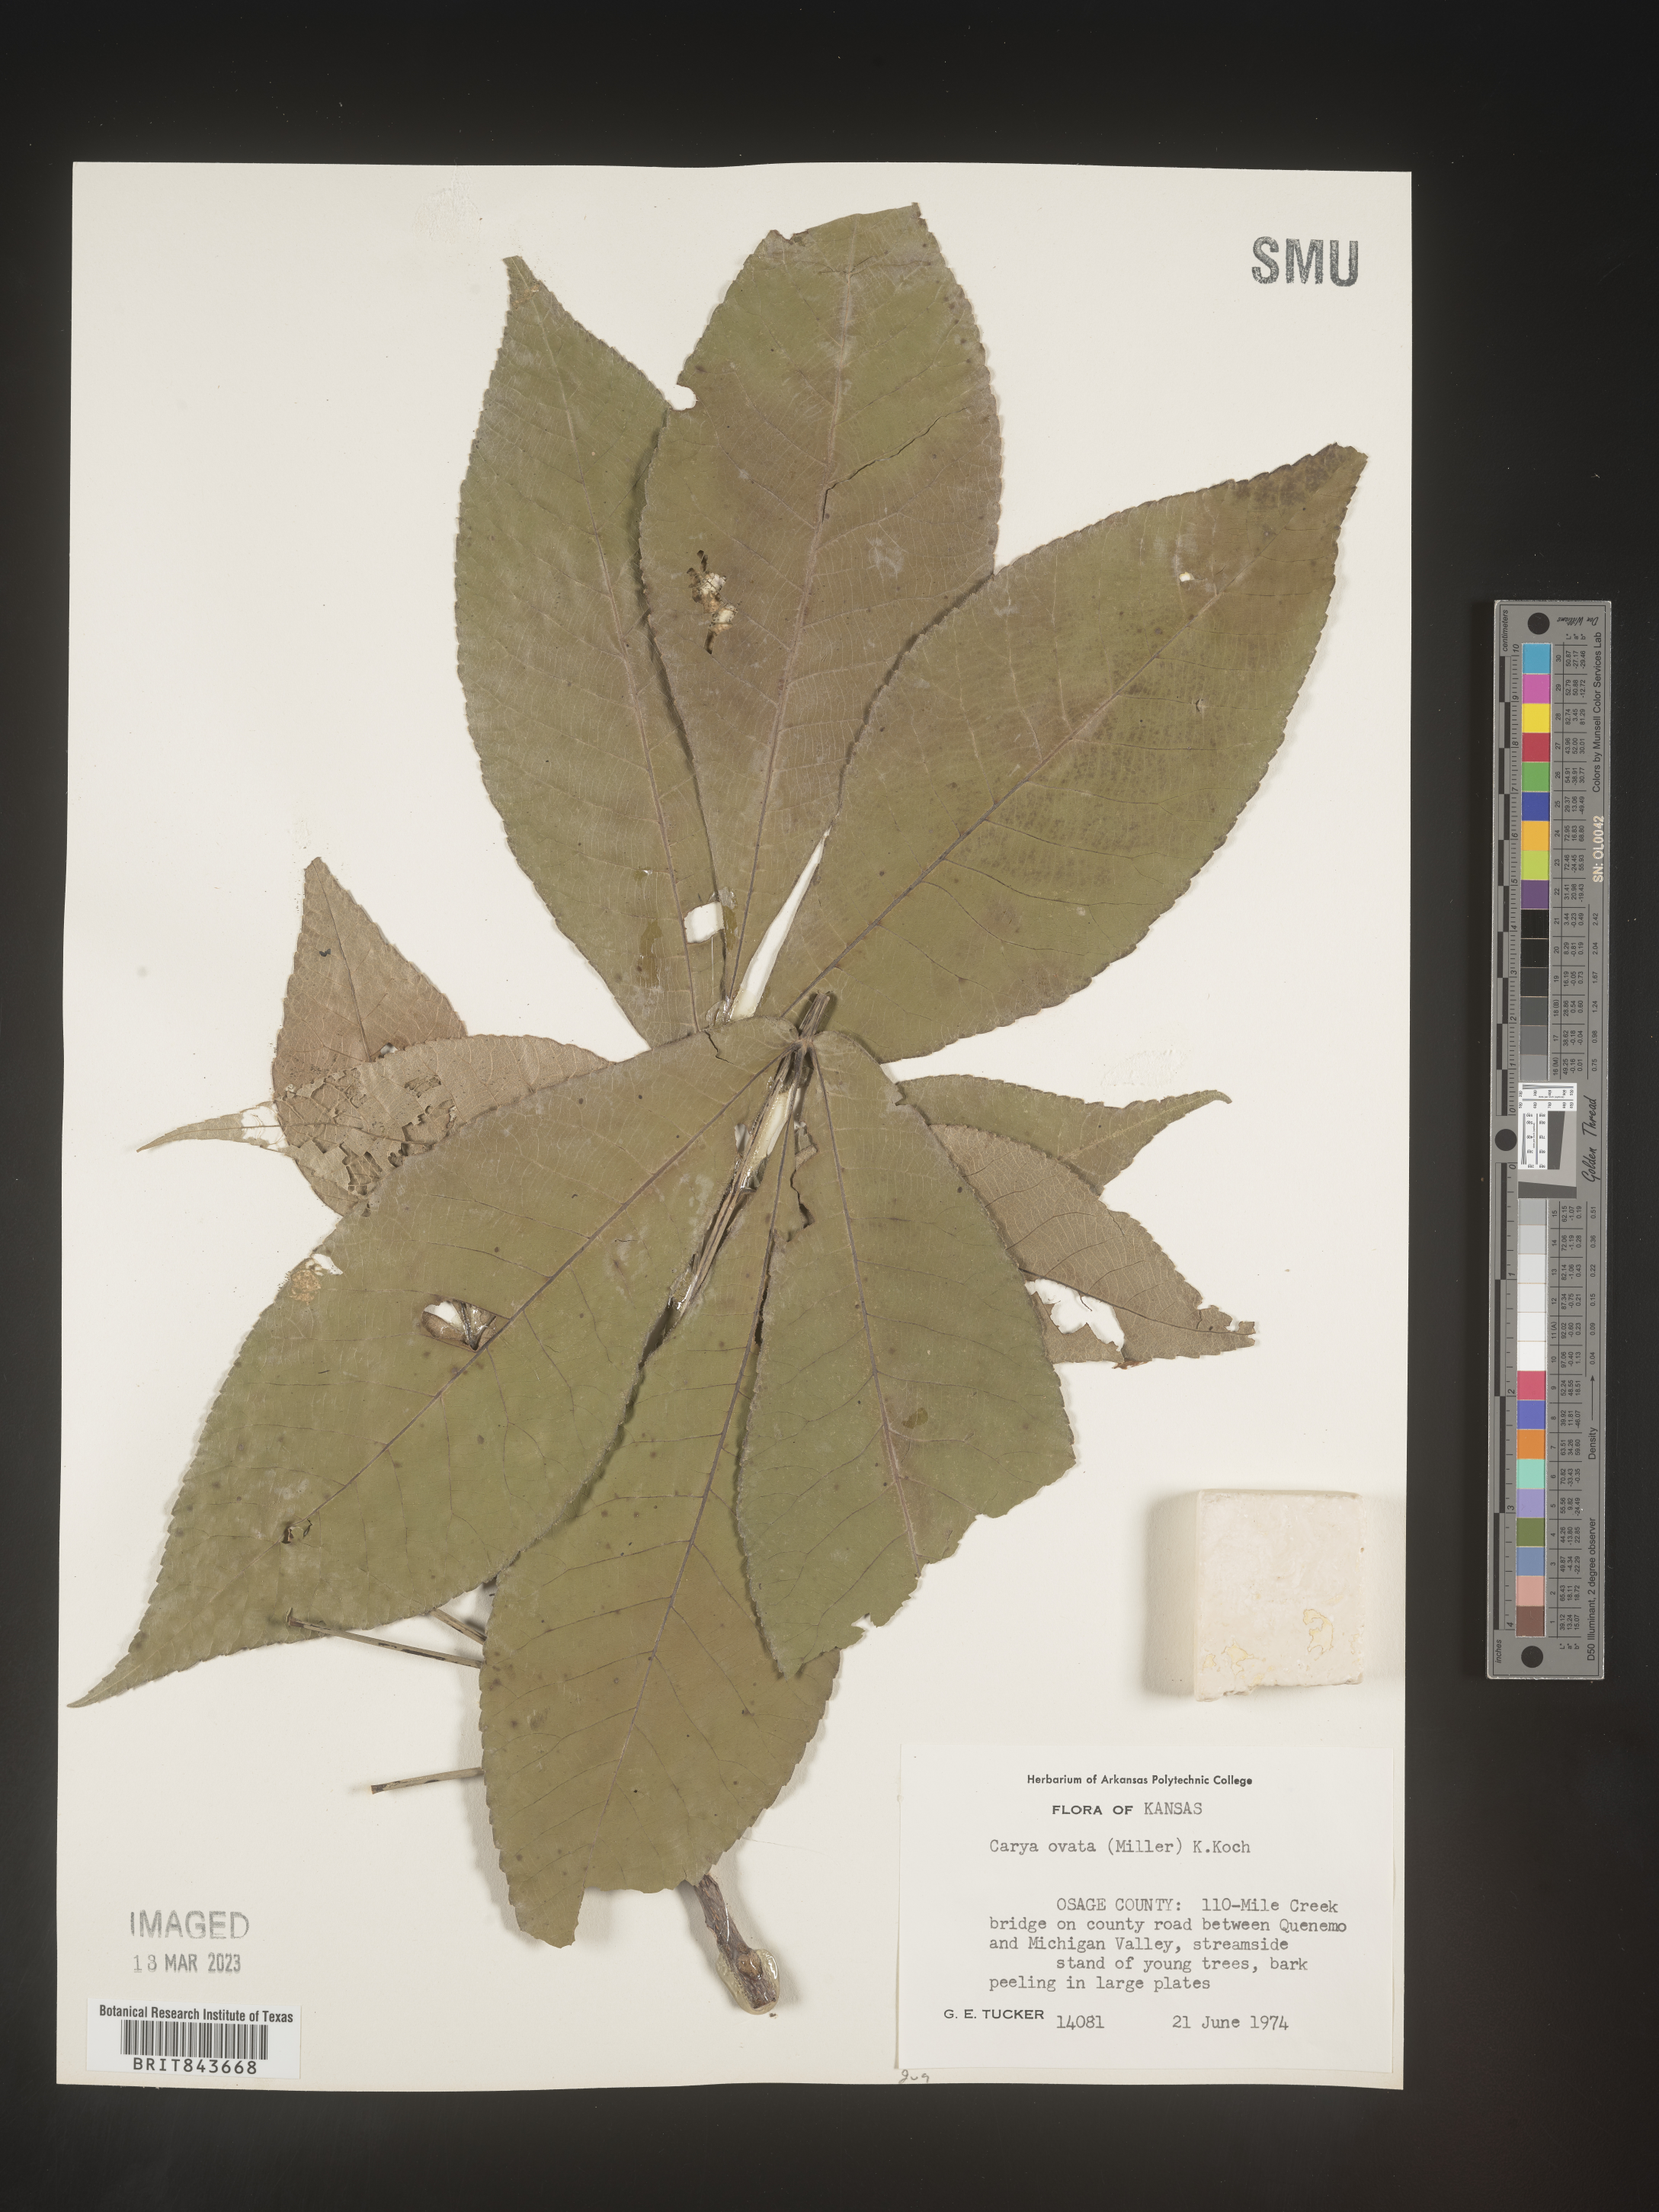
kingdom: Plantae
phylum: Tracheophyta
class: Magnoliopsida
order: Fagales
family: Juglandaceae
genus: Carya
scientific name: Carya ovata
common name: Shagbark hickory
